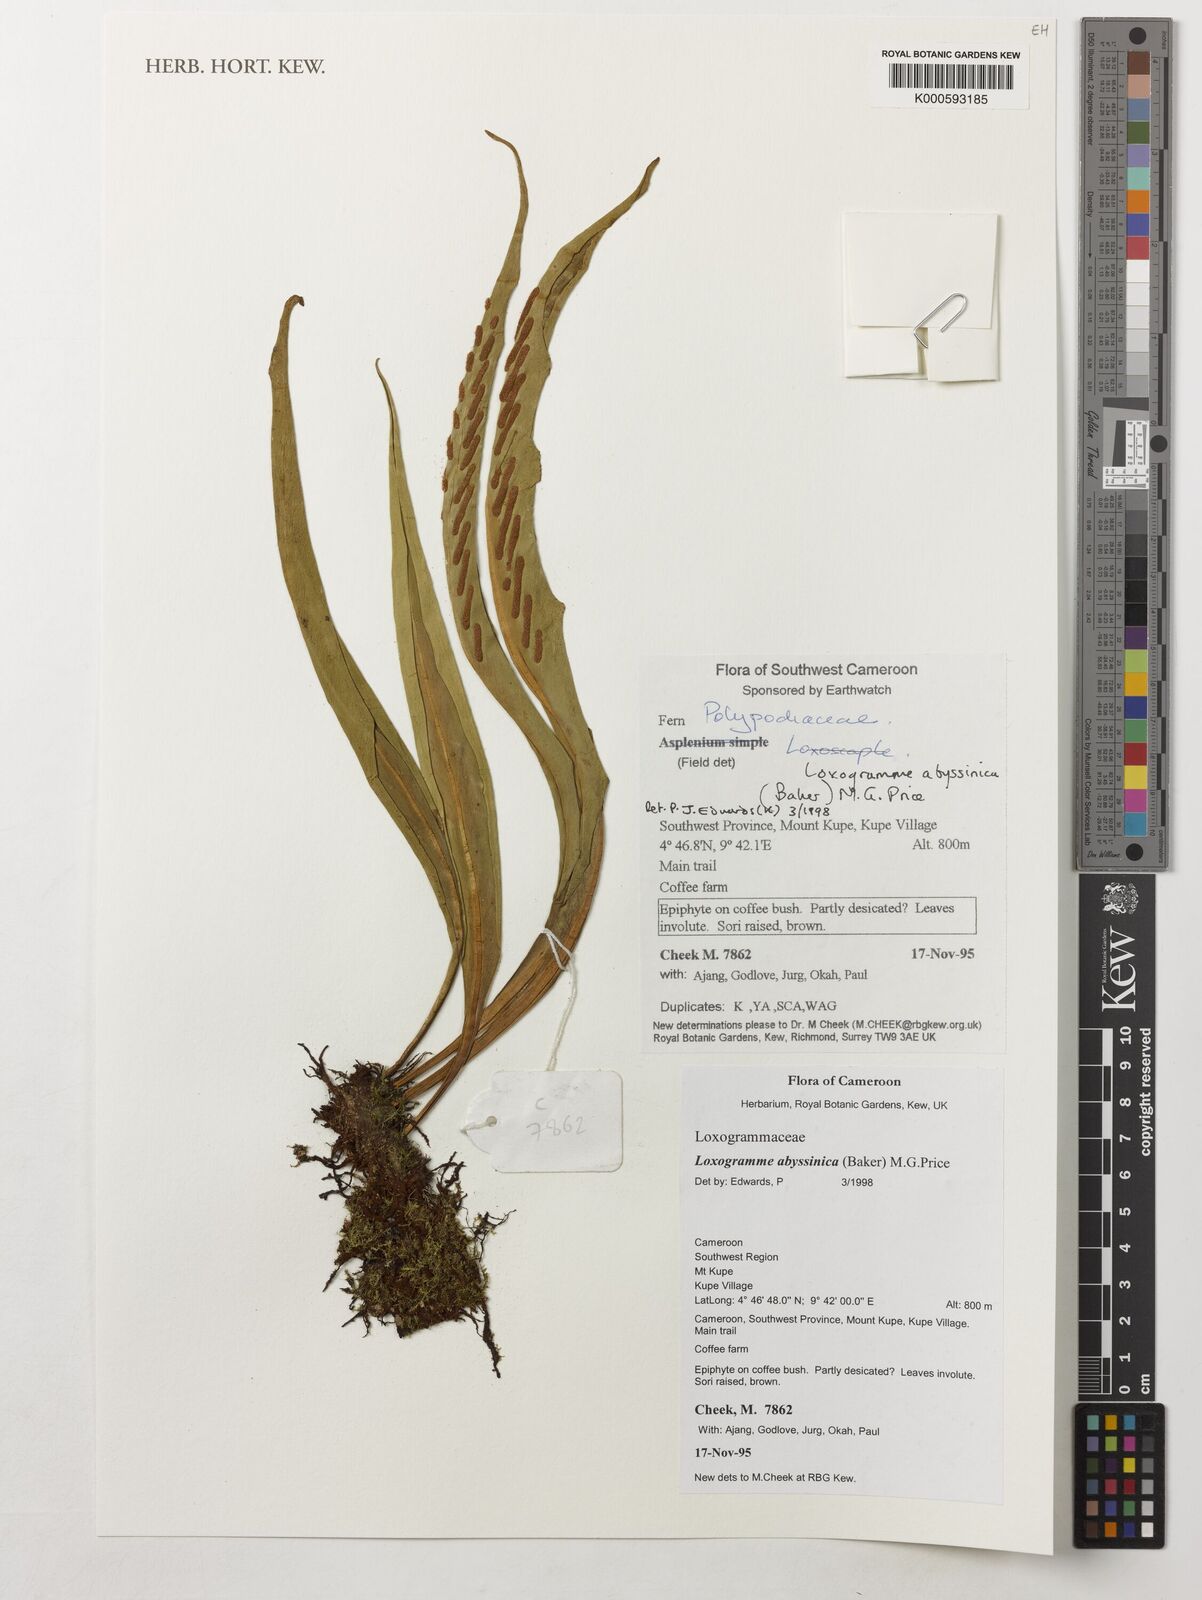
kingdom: Plantae
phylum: Tracheophyta
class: Polypodiopsida
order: Polypodiales
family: Polypodiaceae
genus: Loxogramme
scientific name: Loxogramme abyssinica
